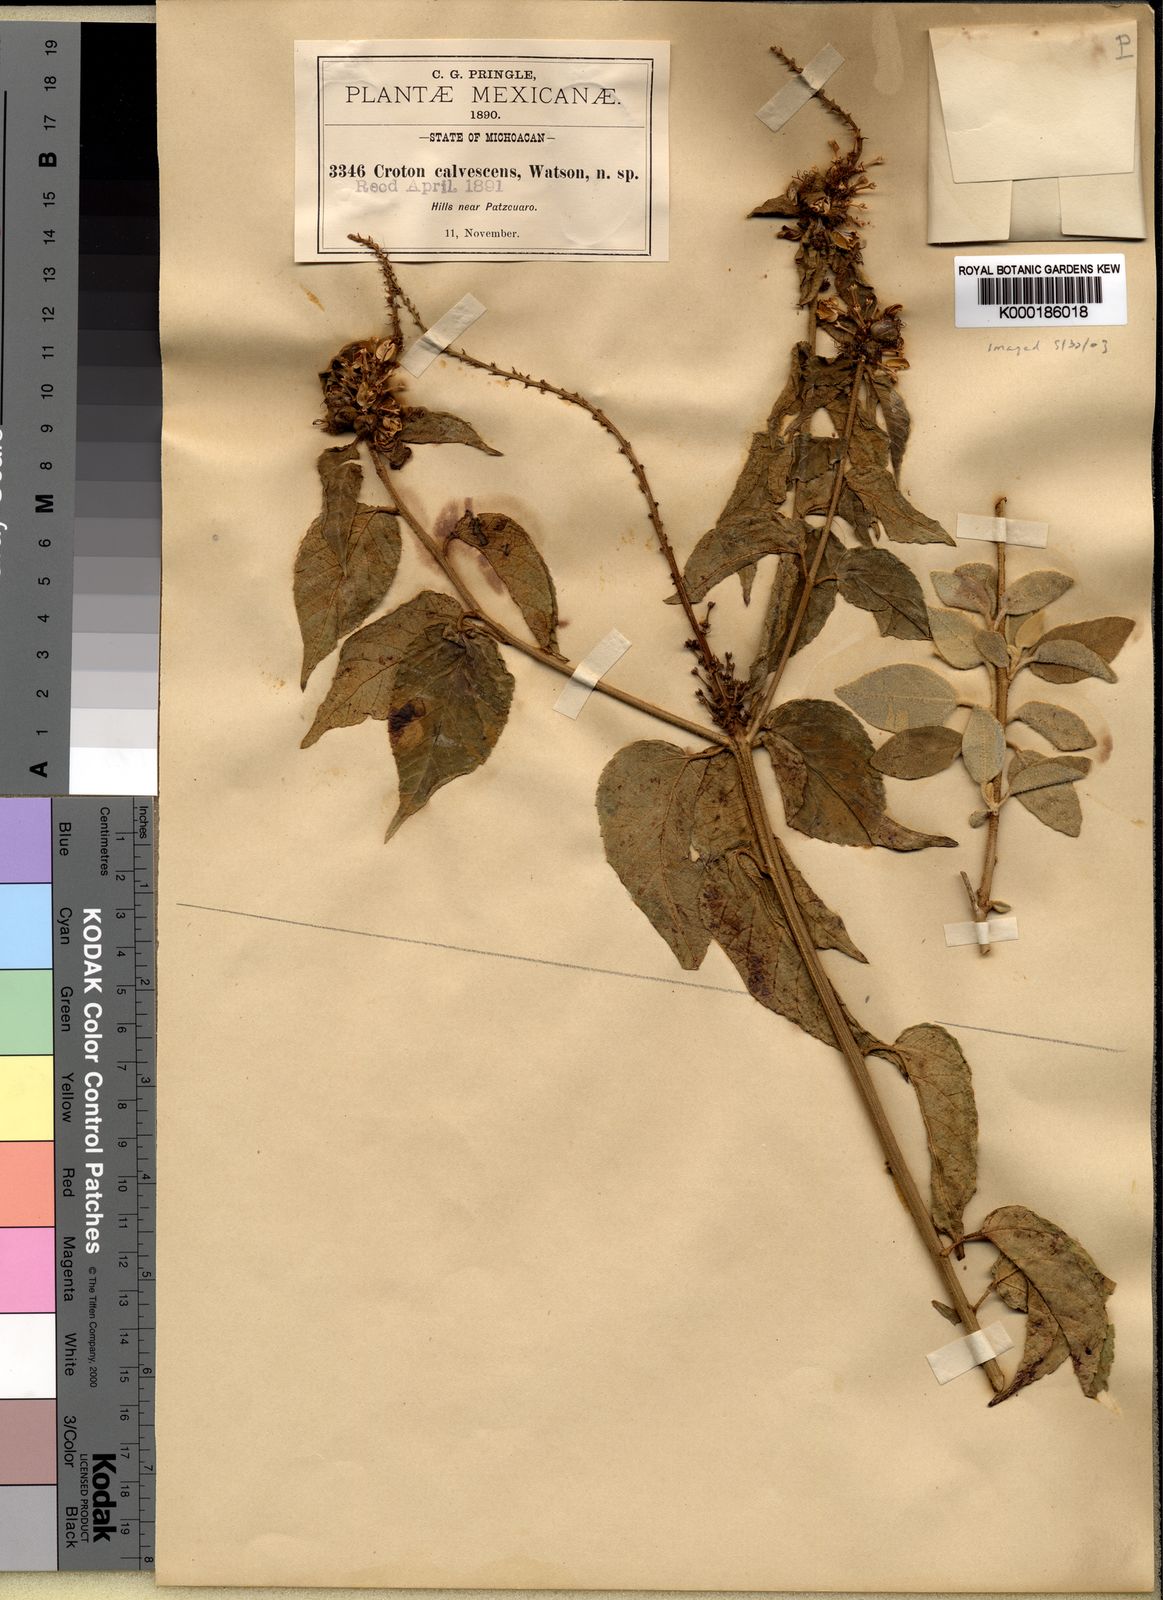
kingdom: Plantae
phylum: Tracheophyta
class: Magnoliopsida
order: Malpighiales
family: Euphorbiaceae
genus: Croton
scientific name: Croton adspersus
